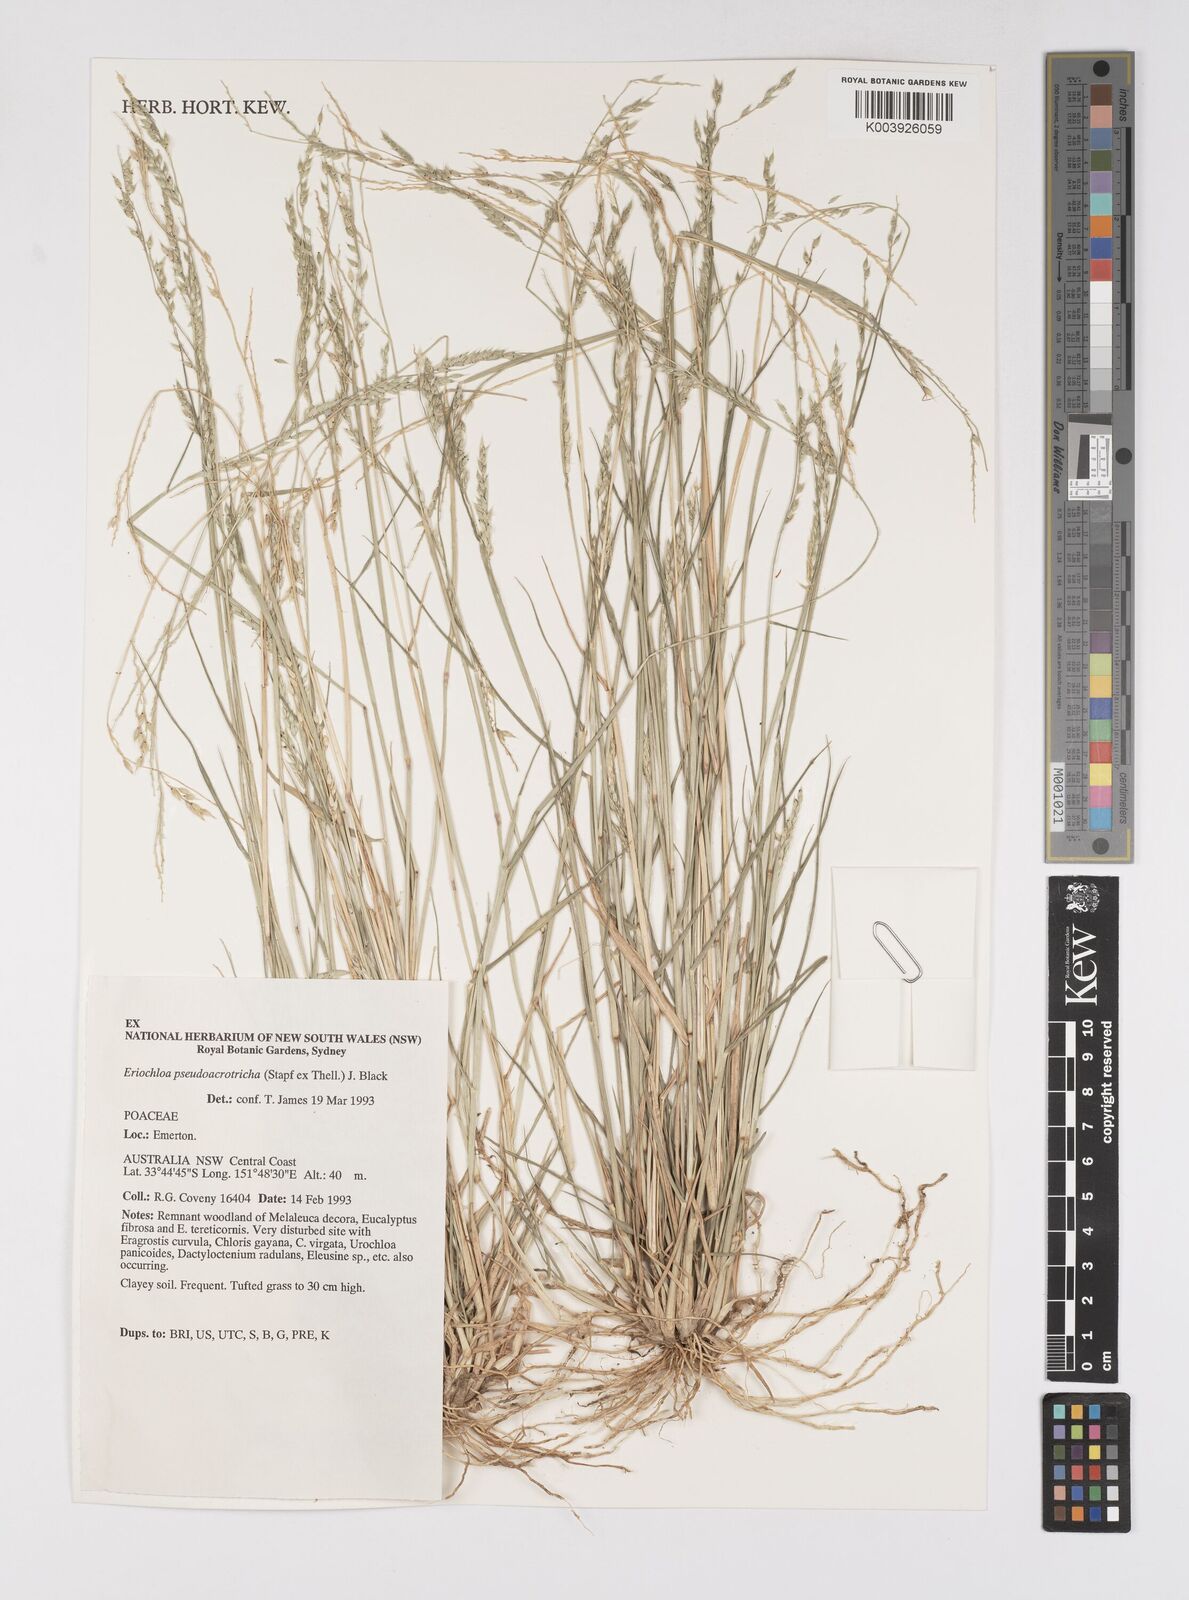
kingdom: Plantae
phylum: Tracheophyta
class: Liliopsida
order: Poales
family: Poaceae
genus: Eriochloa
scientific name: Eriochloa pseudoacrotricha
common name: Perennial cup-grass
